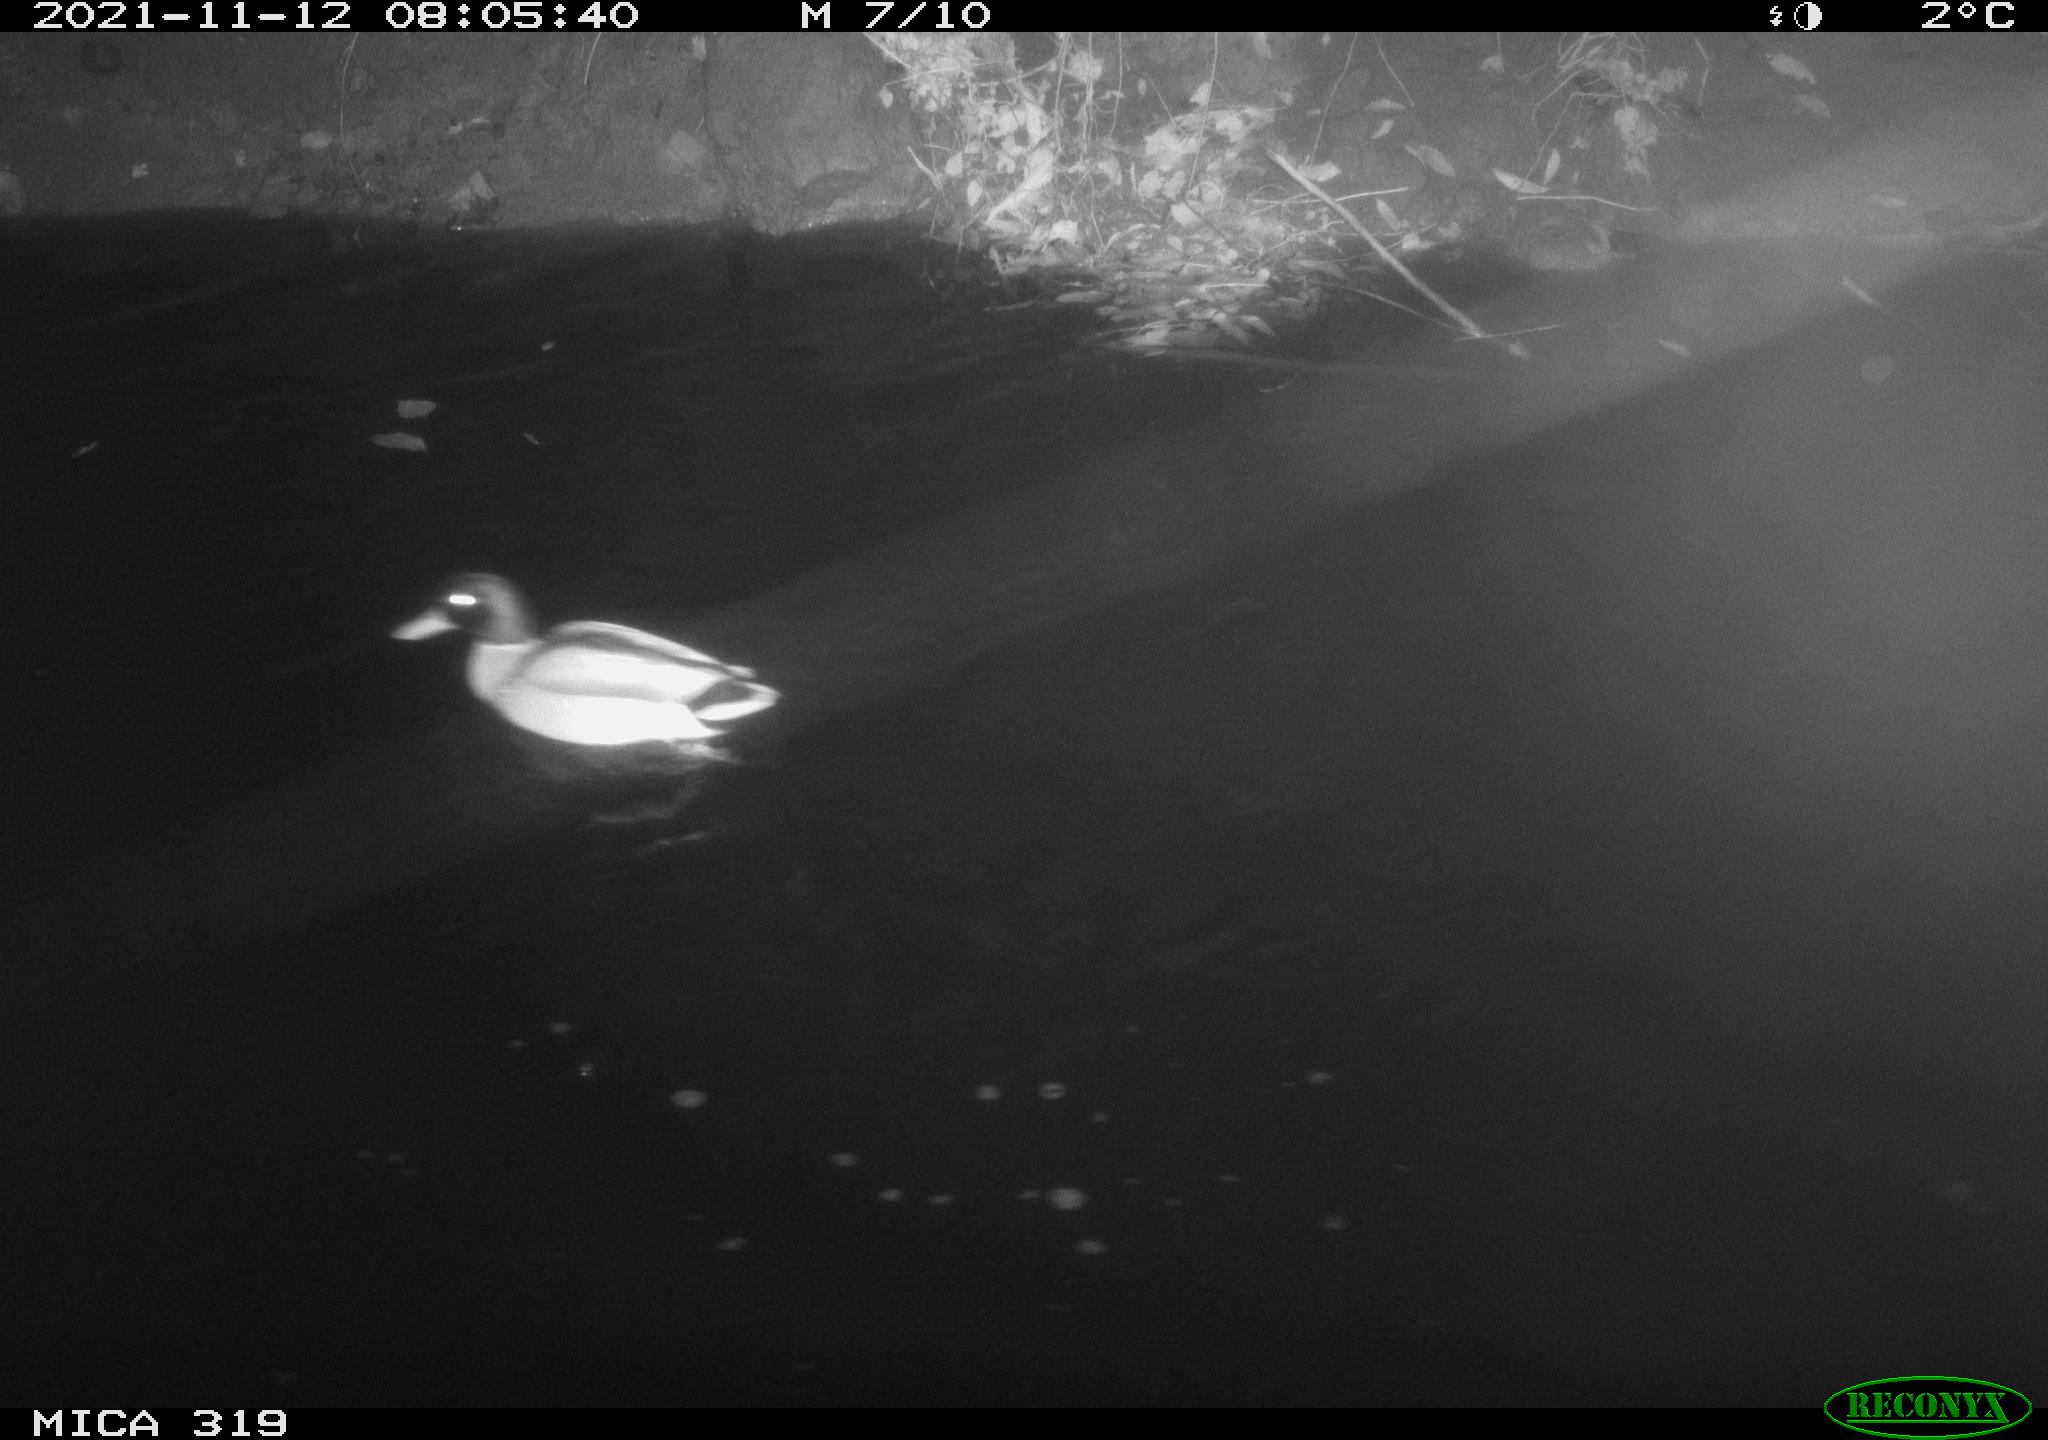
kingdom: Animalia
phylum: Chordata
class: Aves
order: Anseriformes
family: Anatidae
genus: Anas
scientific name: Anas platyrhynchos
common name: Mallard
